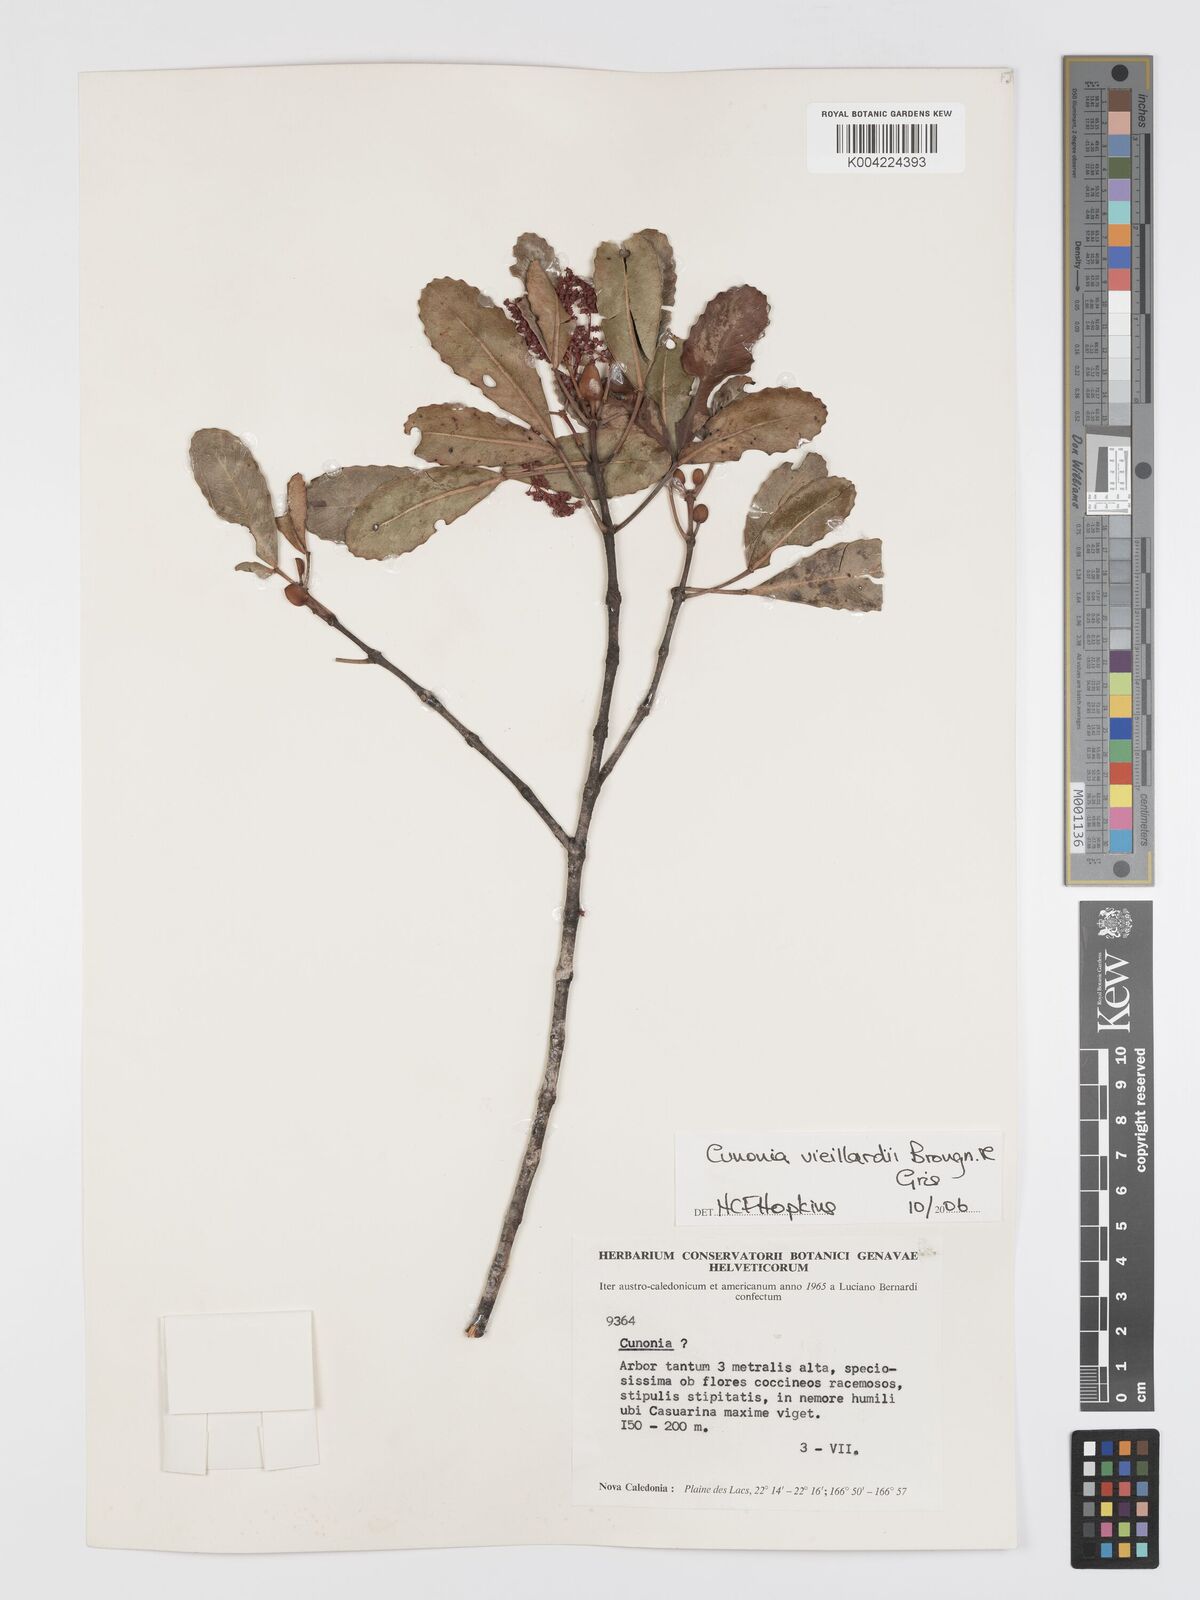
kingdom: Plantae
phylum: Tracheophyta
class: Magnoliopsida
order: Oxalidales
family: Cunoniaceae
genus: Cunonia
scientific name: Cunonia vieillardii
